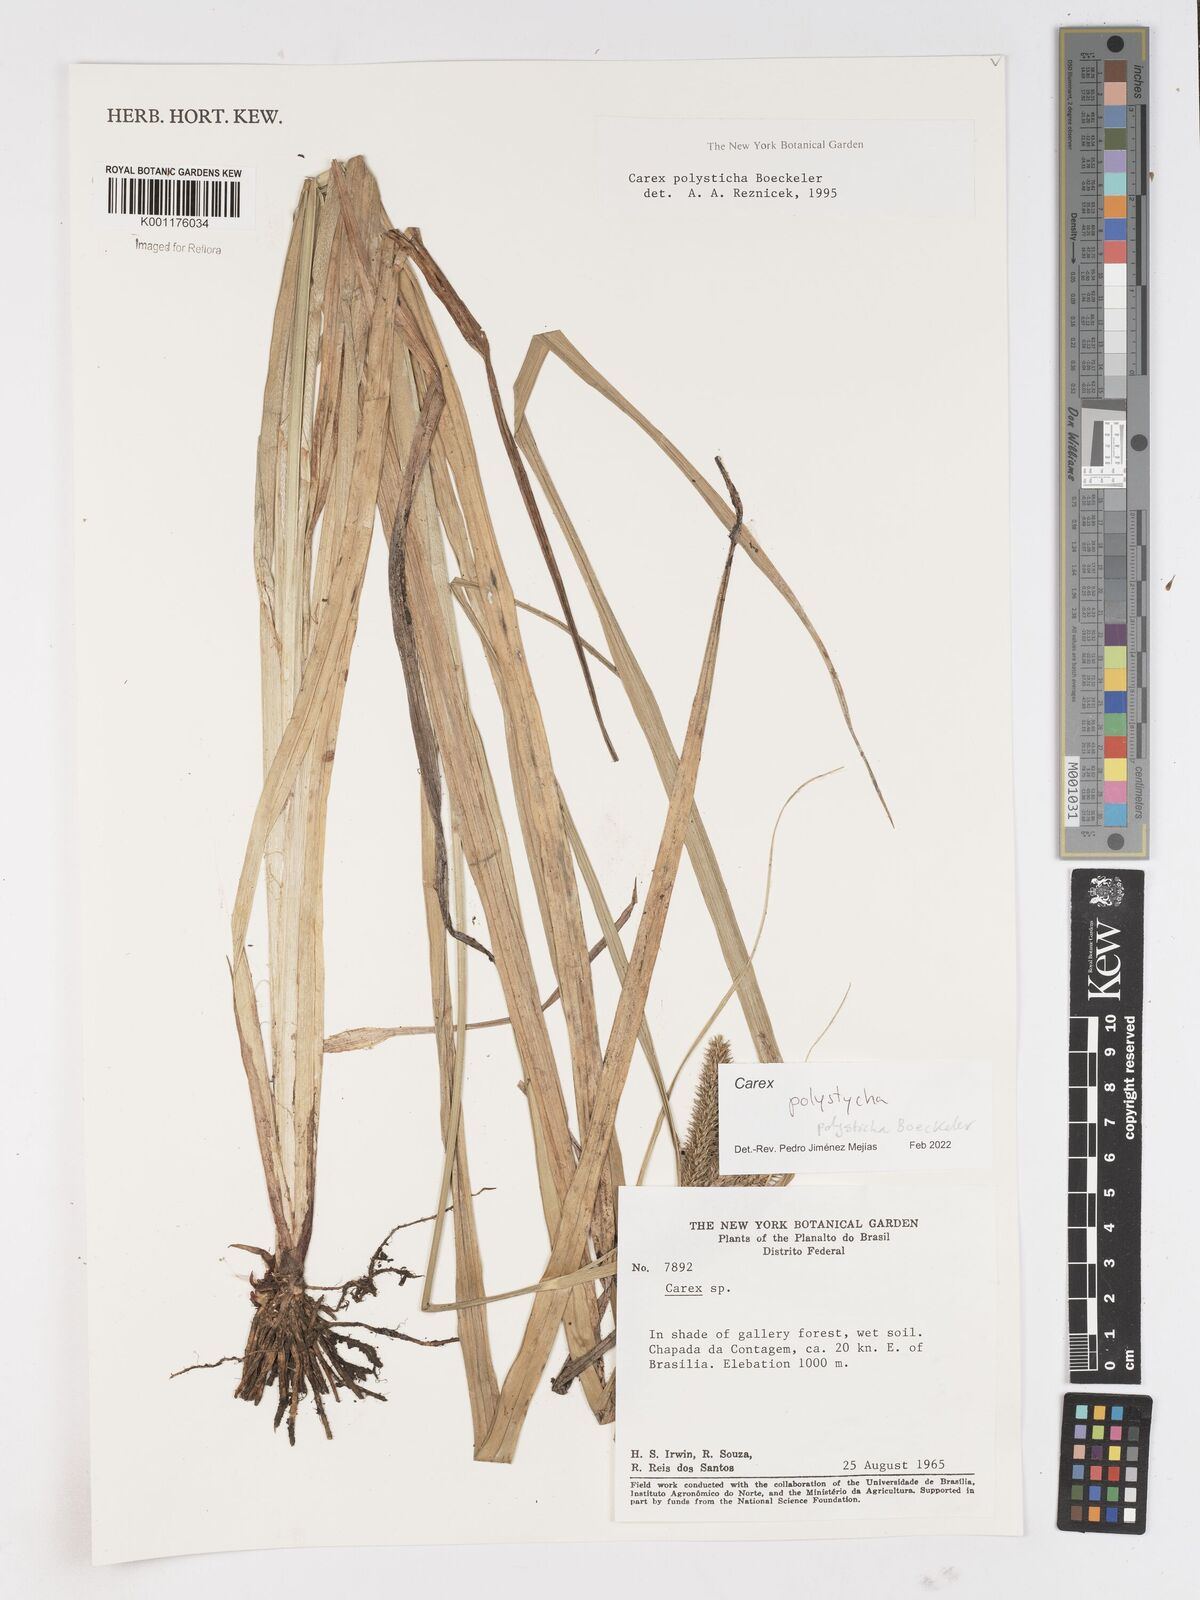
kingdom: Plantae
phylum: Tracheophyta
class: Liliopsida
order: Poales
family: Cyperaceae
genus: Carex
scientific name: Carex
